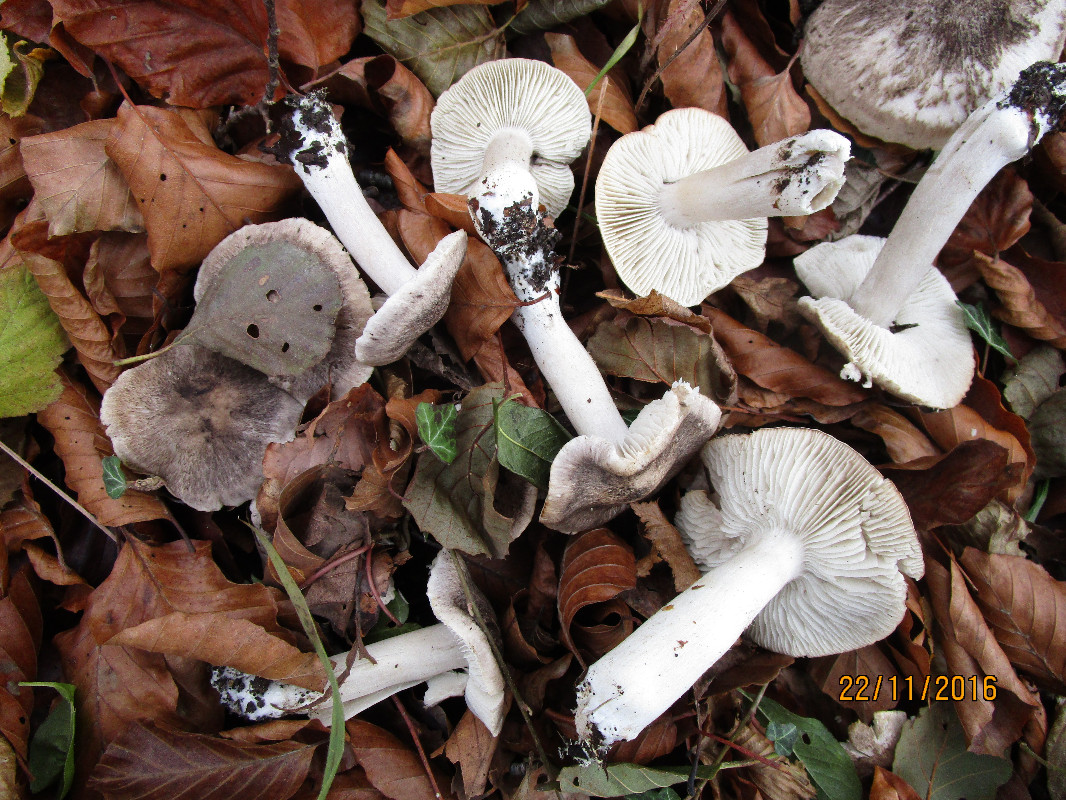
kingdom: Fungi
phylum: Basidiomycota
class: Agaricomycetes
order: Agaricales
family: Tricholomataceae
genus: Tricholoma
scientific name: Tricholoma orirubens
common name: rødbladet ridderhat
